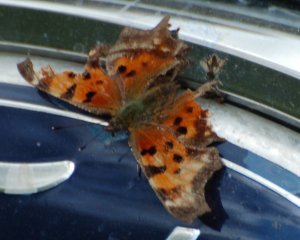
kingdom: Animalia
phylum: Arthropoda
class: Insecta
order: Lepidoptera
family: Nymphalidae
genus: Polygonia
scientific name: Polygonia faunus
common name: Green Comma
